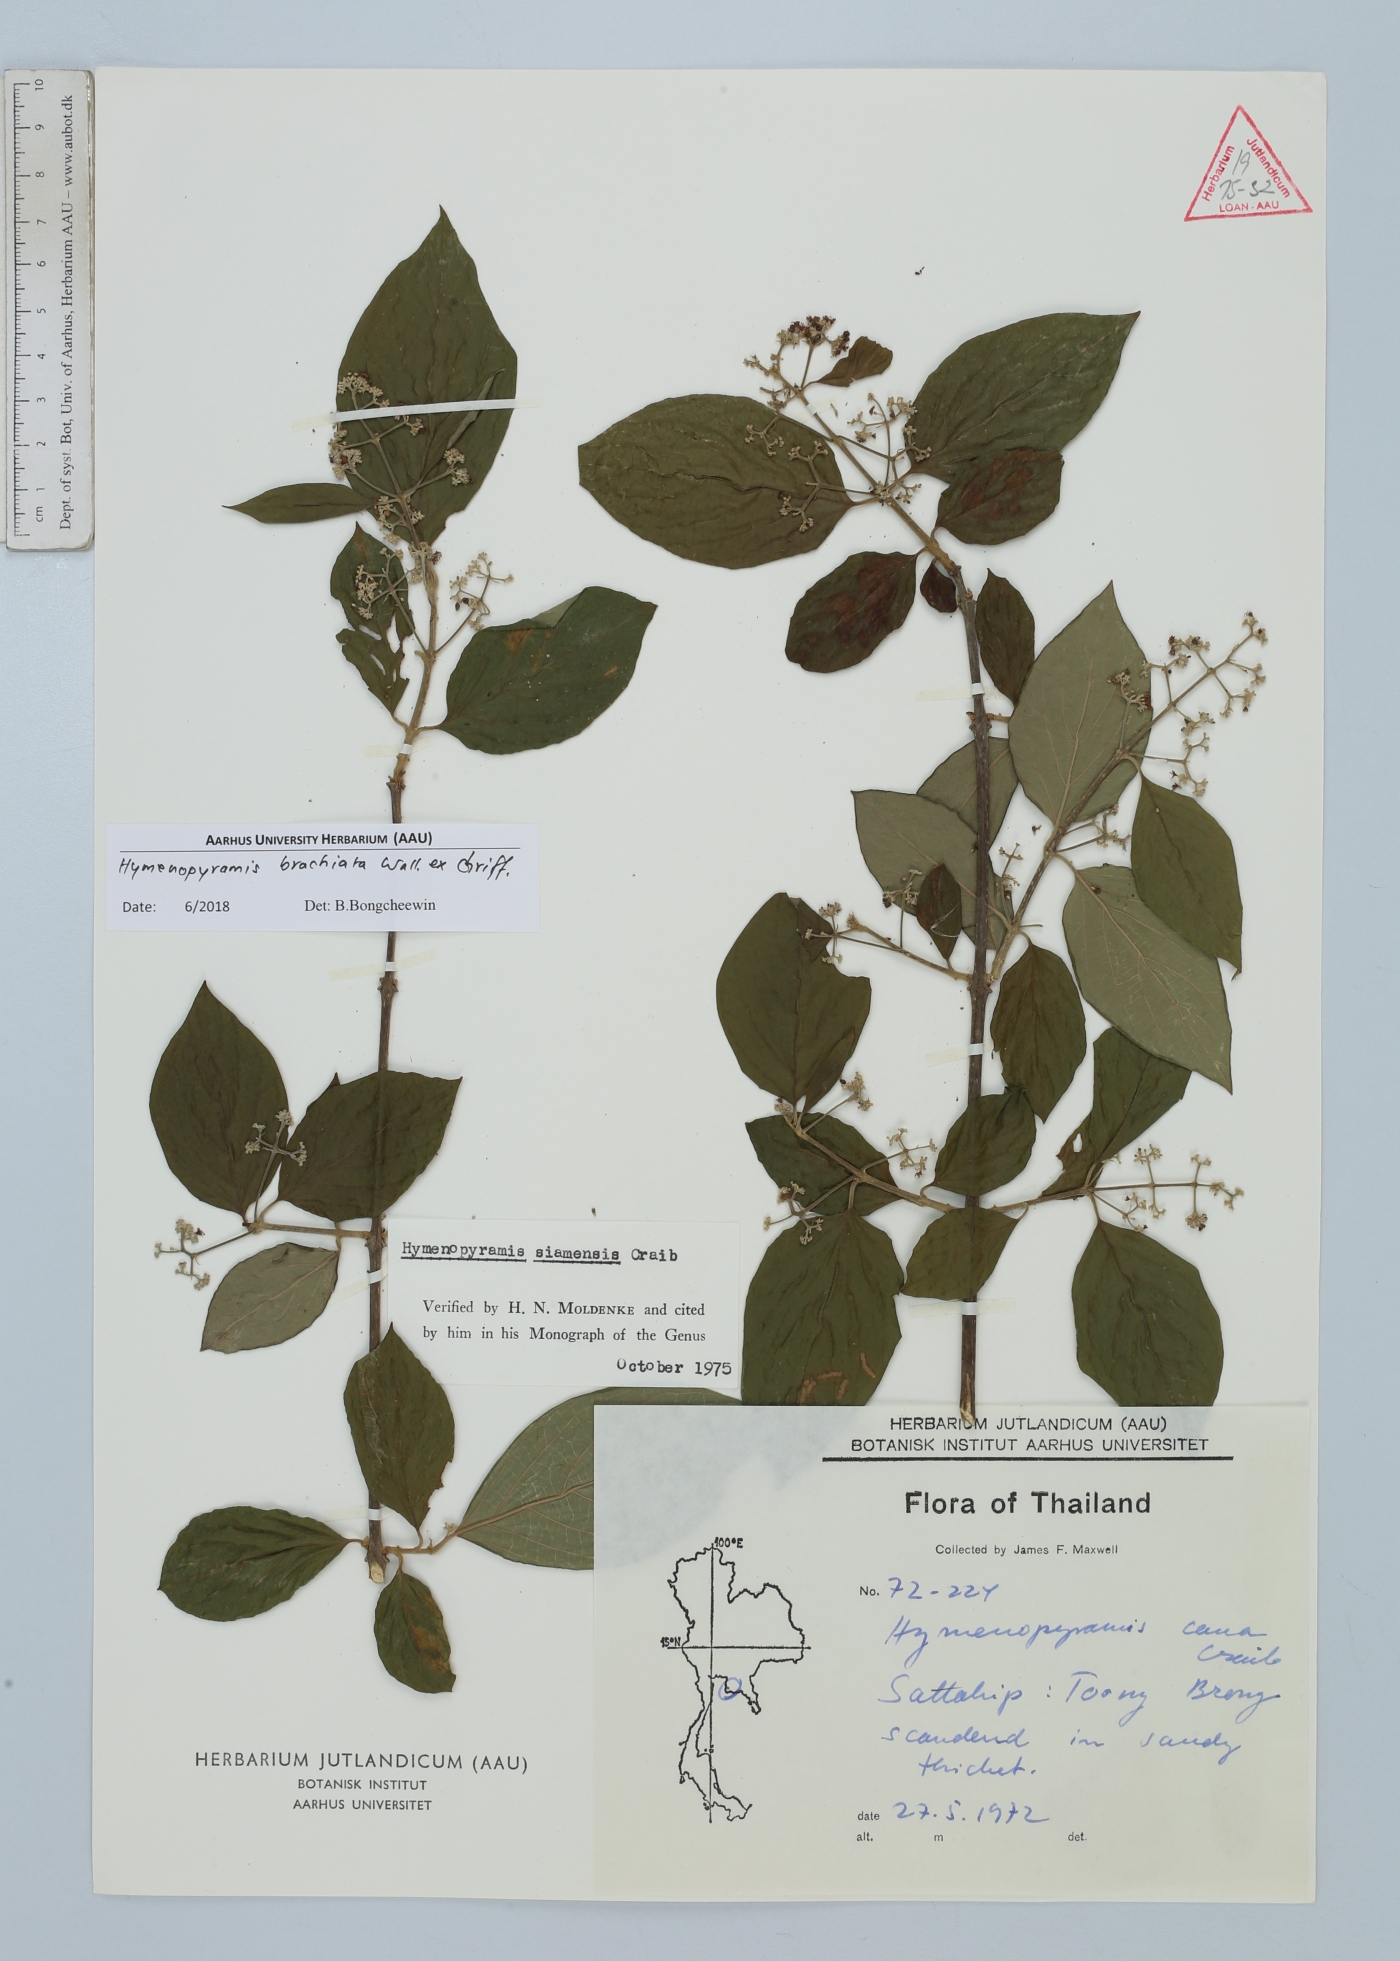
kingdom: Plantae
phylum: Tracheophyta
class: Magnoliopsida
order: Lamiales
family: Lamiaceae
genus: Hymenopyramis
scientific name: Hymenopyramis brachiata
